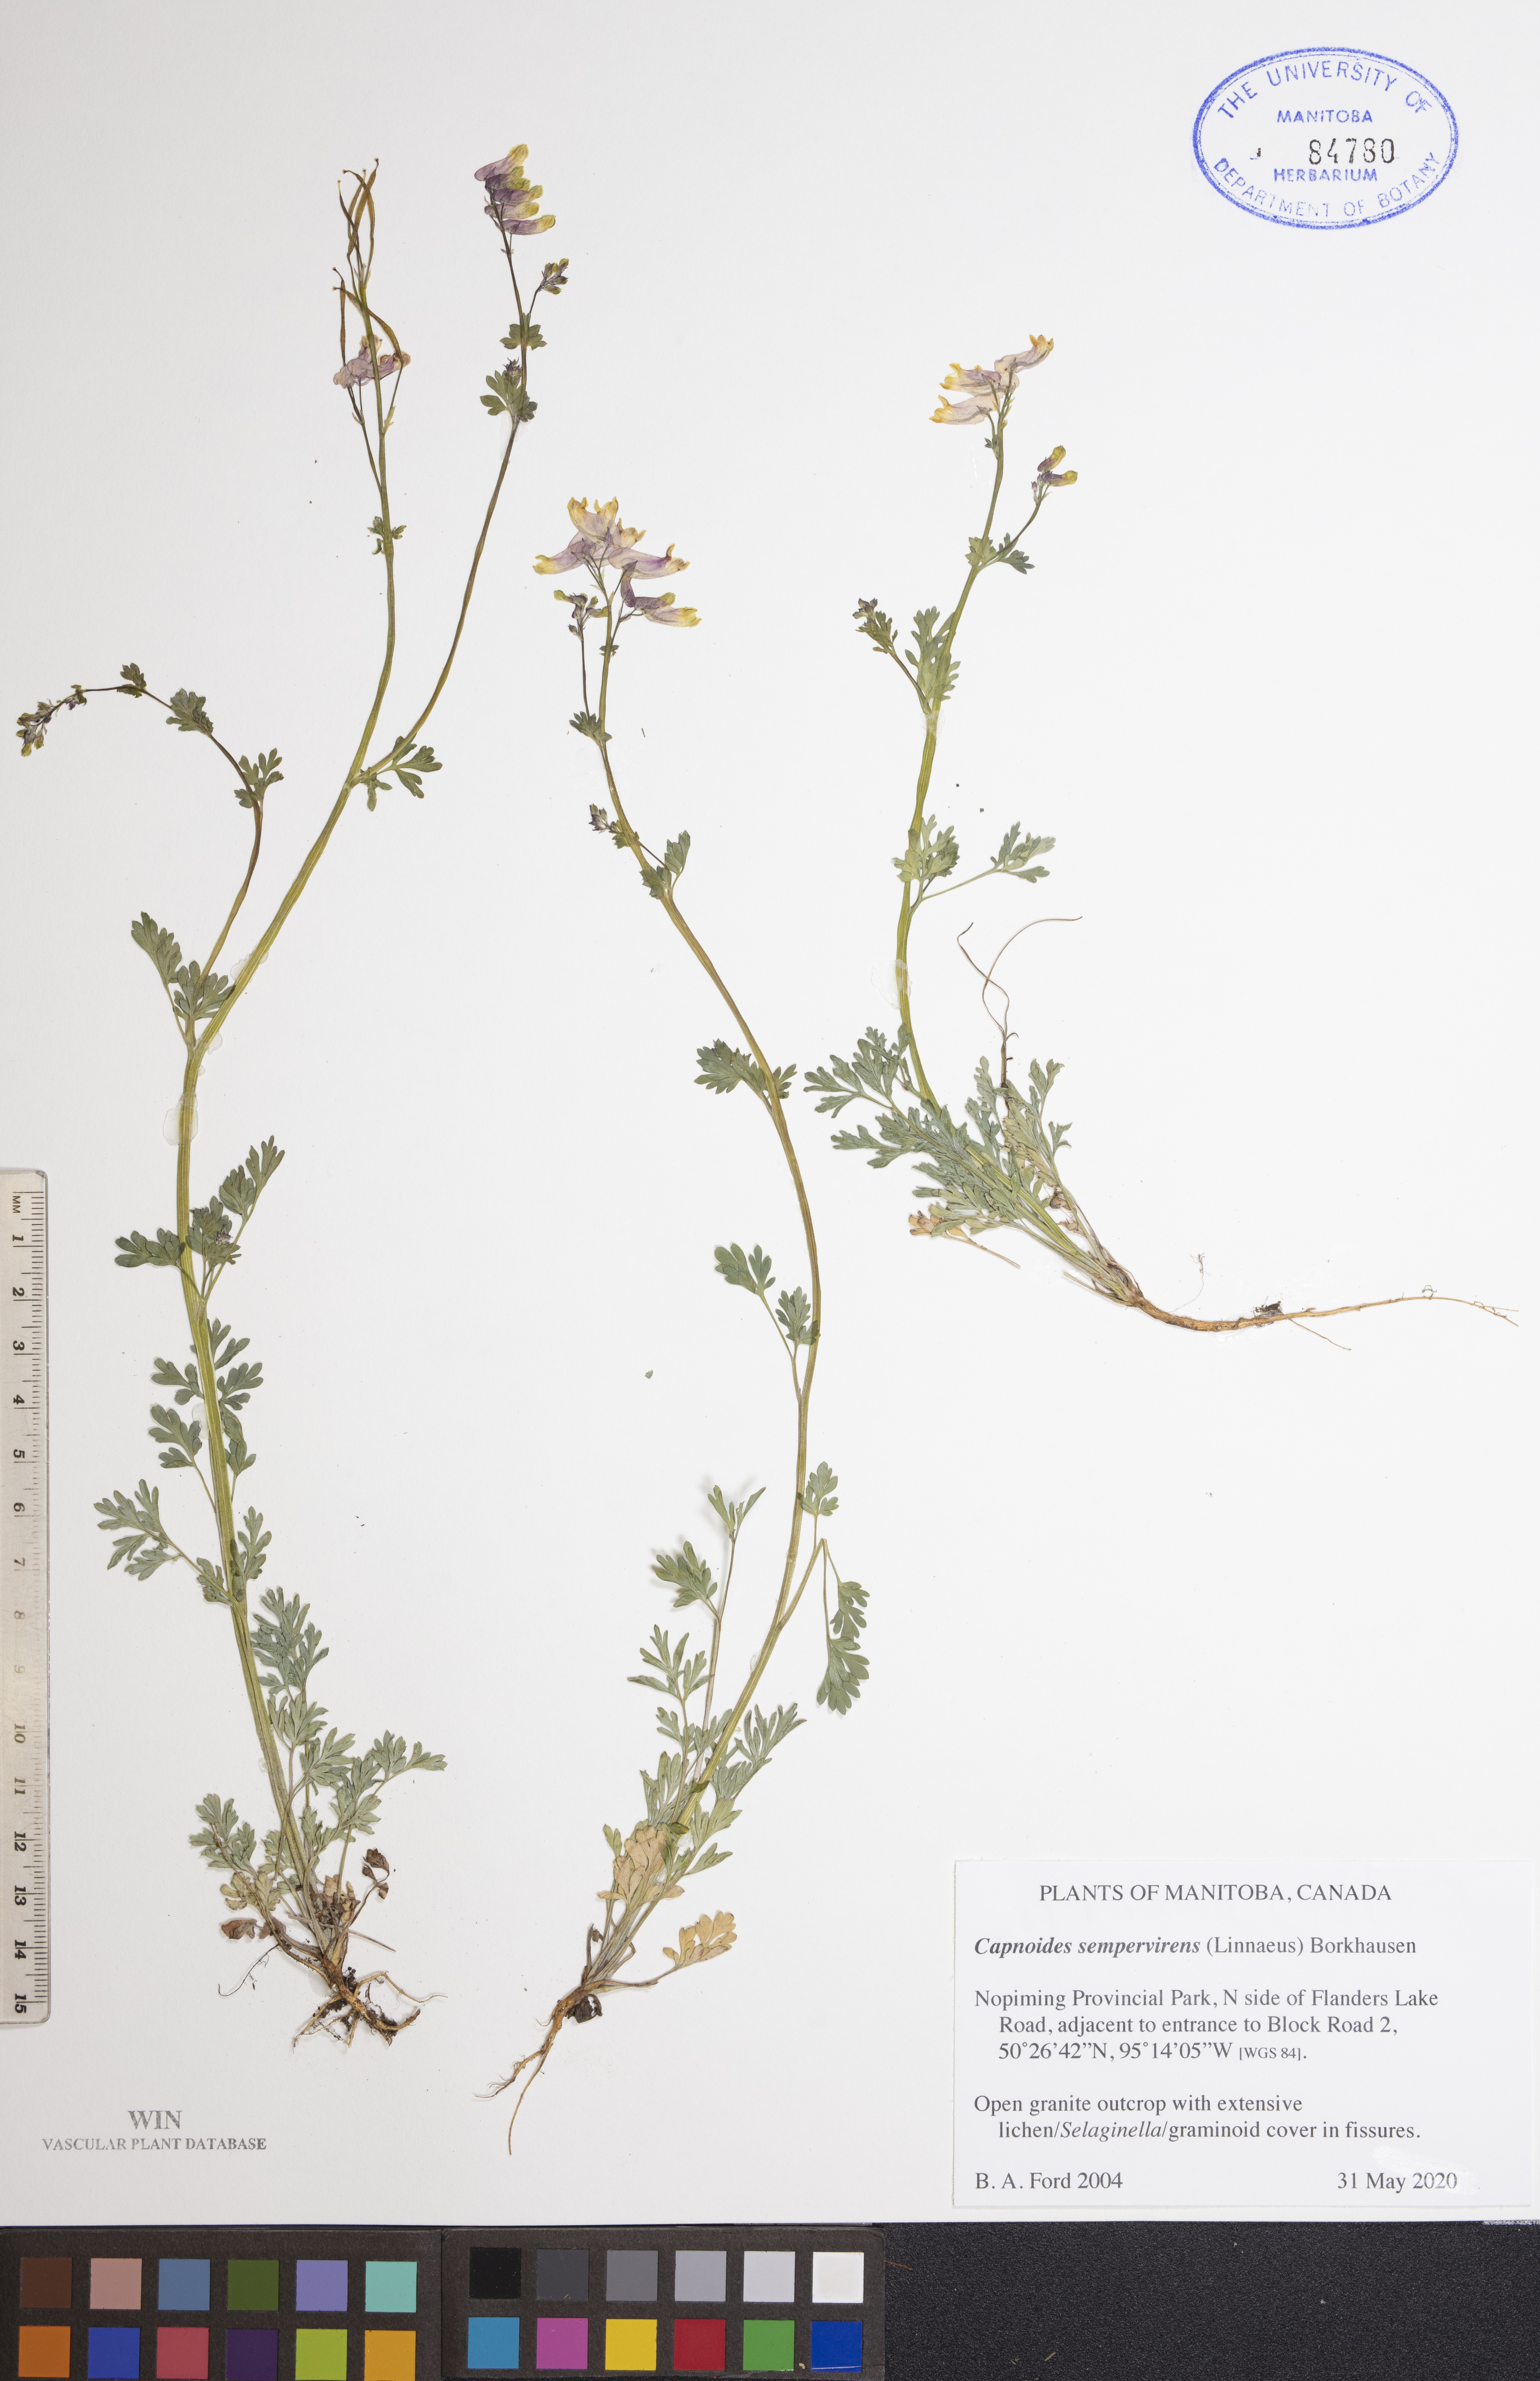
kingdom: Plantae
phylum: Tracheophyta
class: Magnoliopsida
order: Ranunculales
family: Papaveraceae
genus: Capnoides
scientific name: Capnoides sempervirens
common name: Rock harlequin
